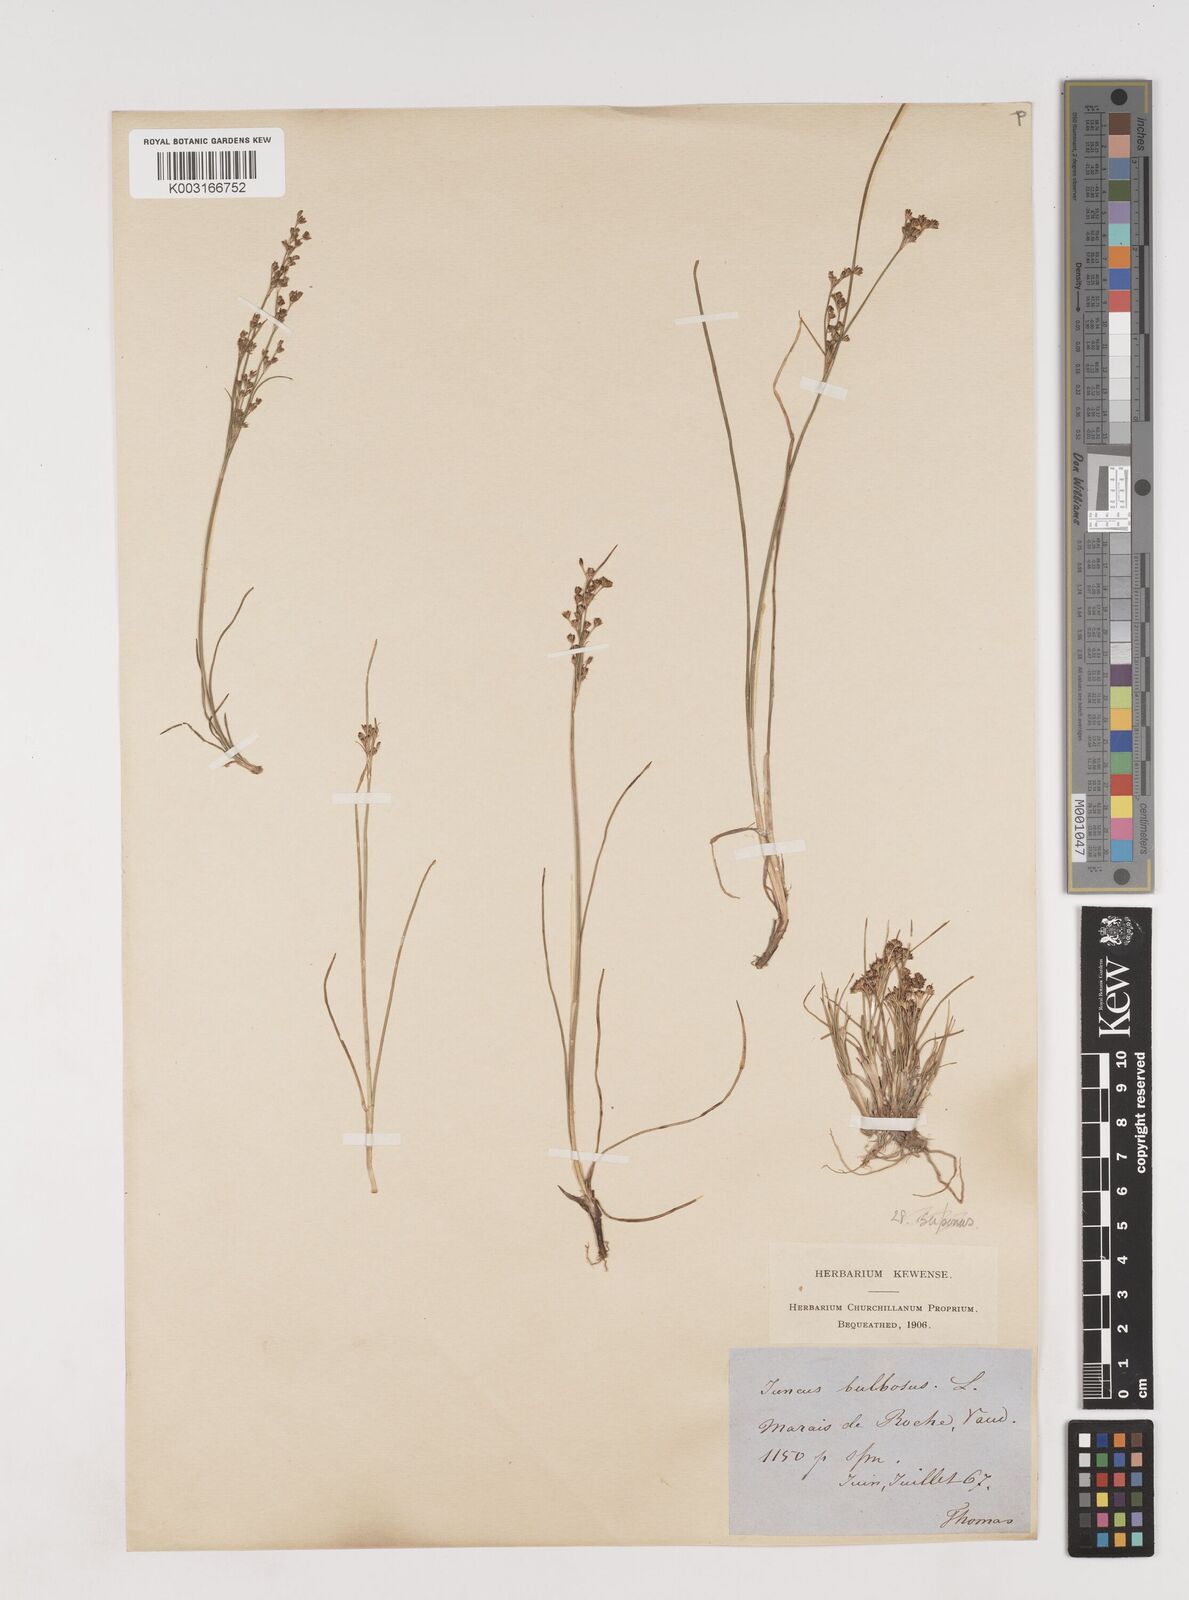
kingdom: Plantae
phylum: Tracheophyta
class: Liliopsida
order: Poales
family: Juncaceae
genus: Juncus
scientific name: Juncus
